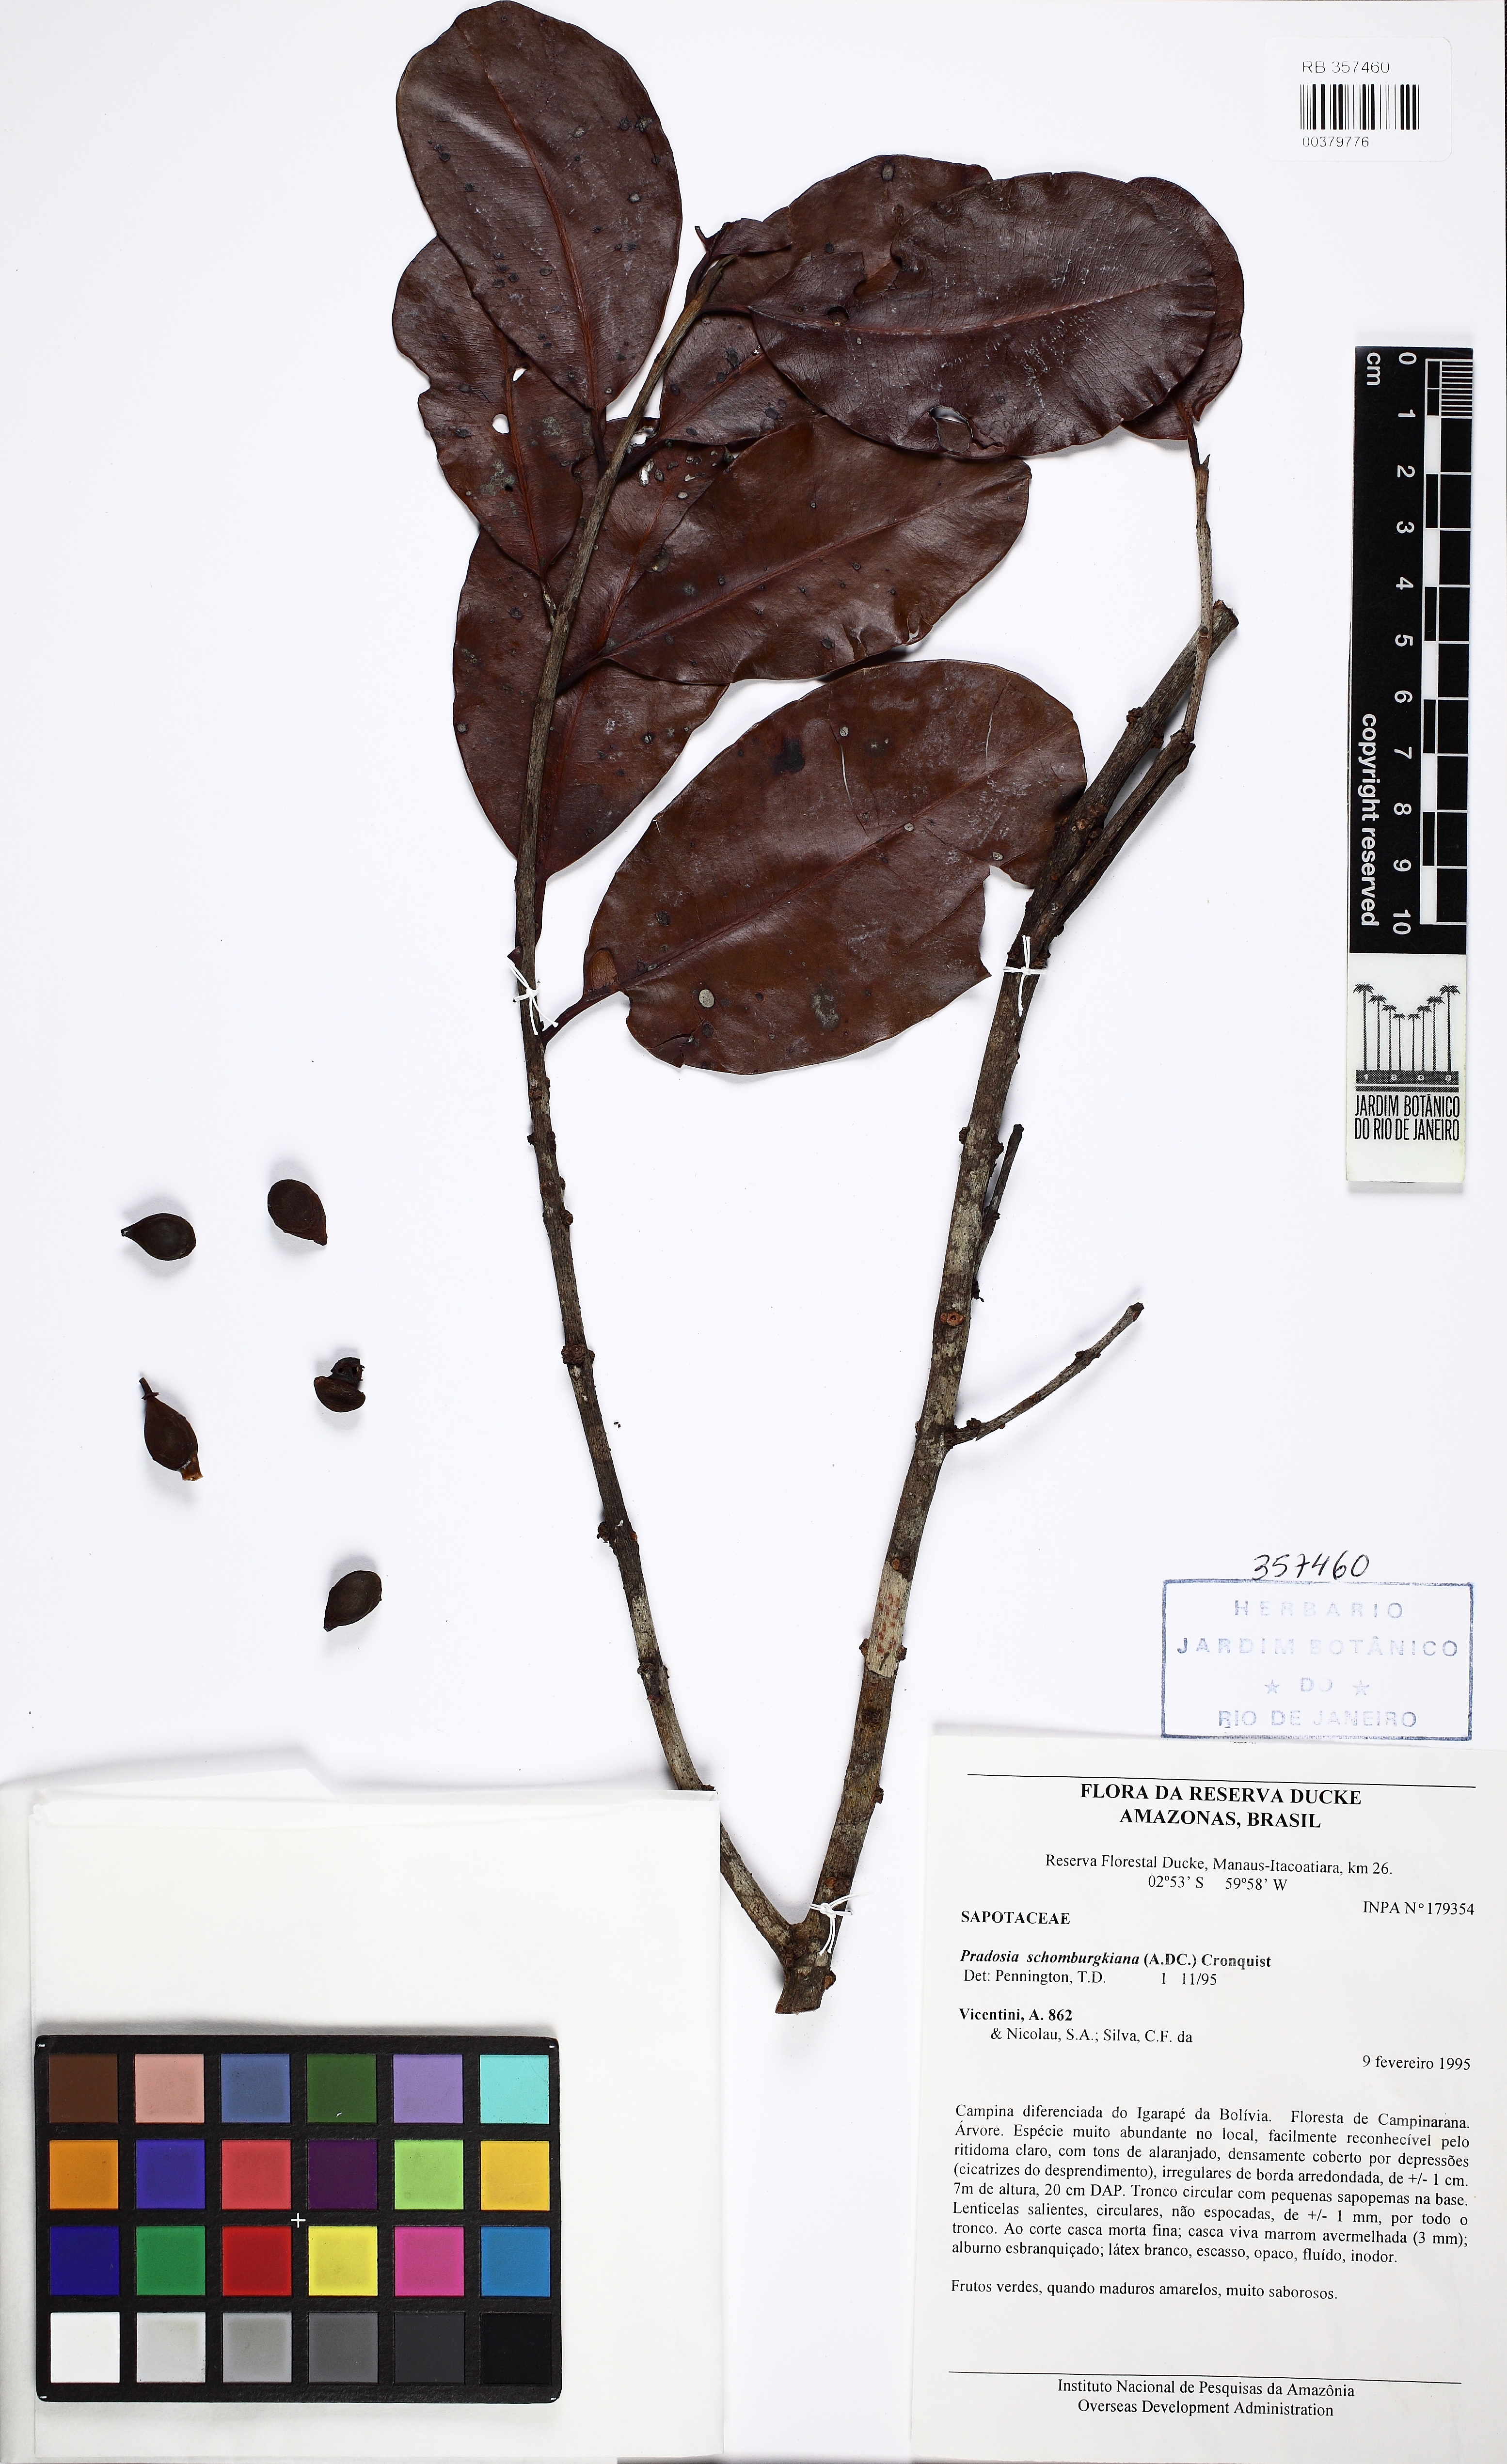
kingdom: Plantae
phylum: Tracheophyta
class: Magnoliopsida
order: Ericales
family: Sapotaceae
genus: Pradosia
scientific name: Pradosia schomburgkiana
